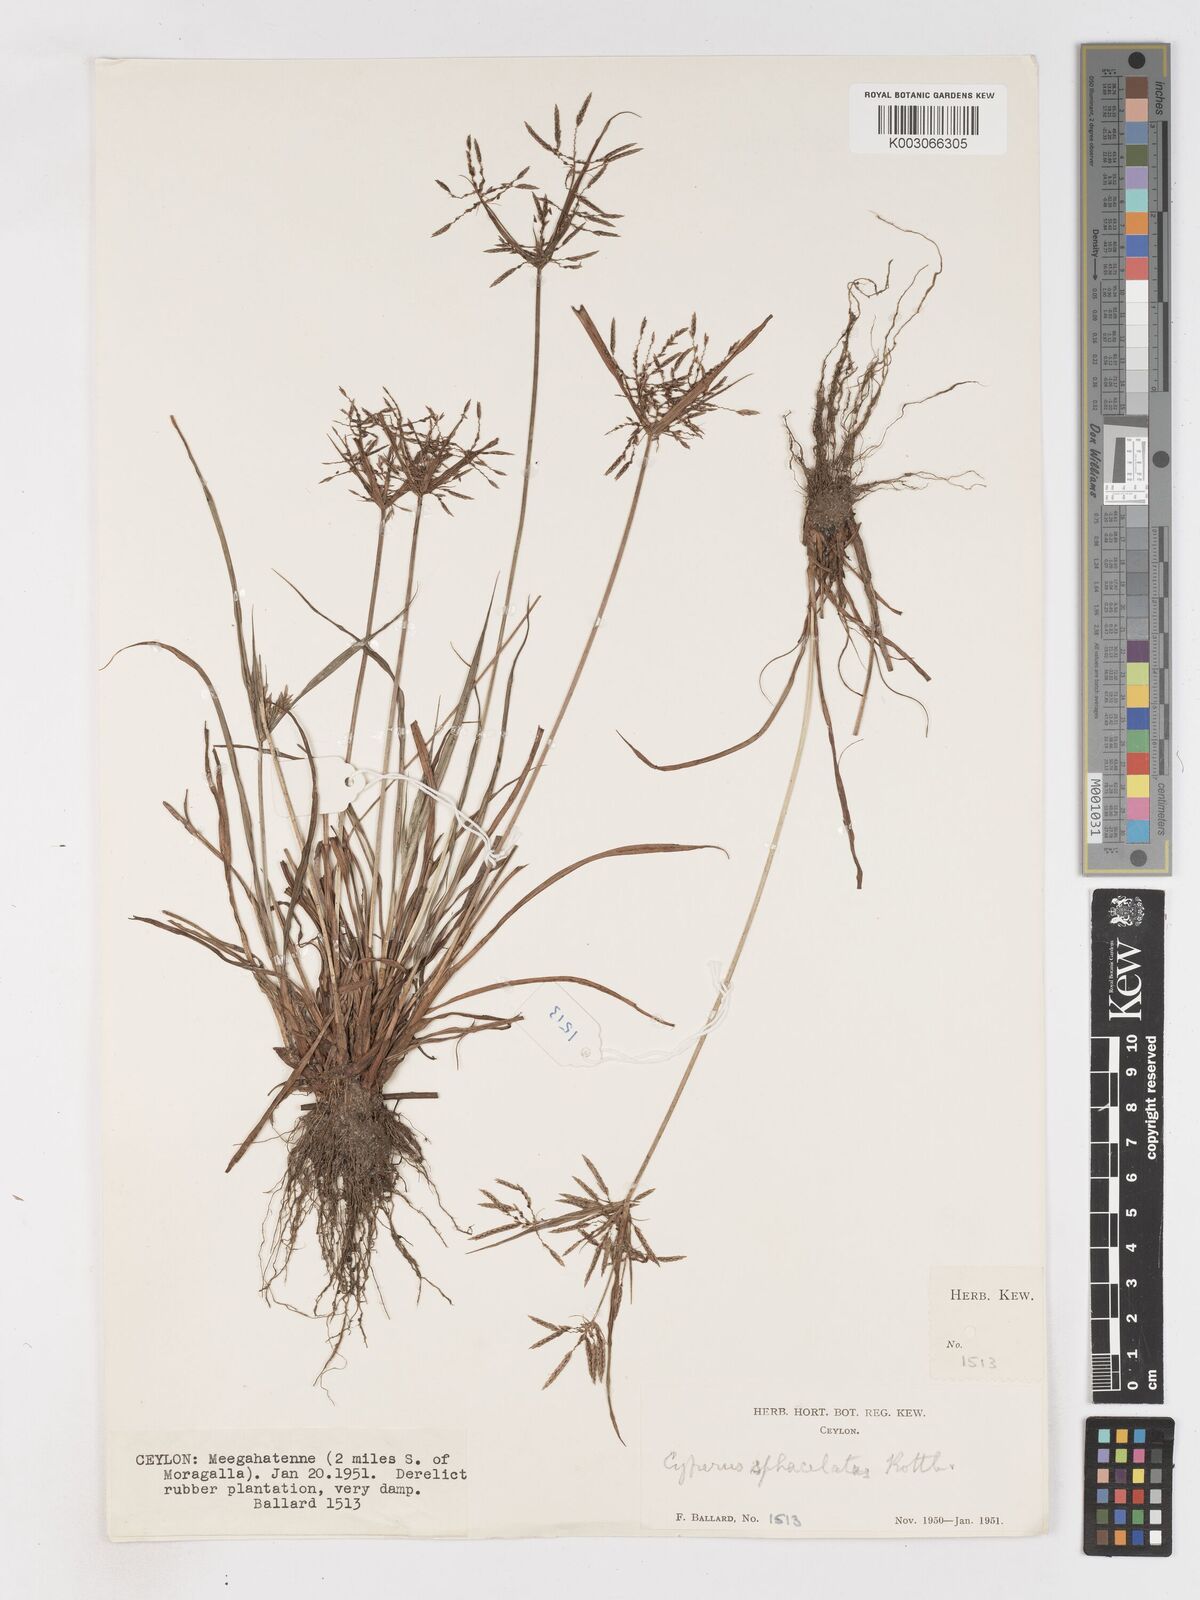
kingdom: Plantae
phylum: Tracheophyta
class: Liliopsida
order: Poales
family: Cyperaceae
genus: Cyperus
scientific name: Cyperus sphacelatus
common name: Roadside flatsedge
